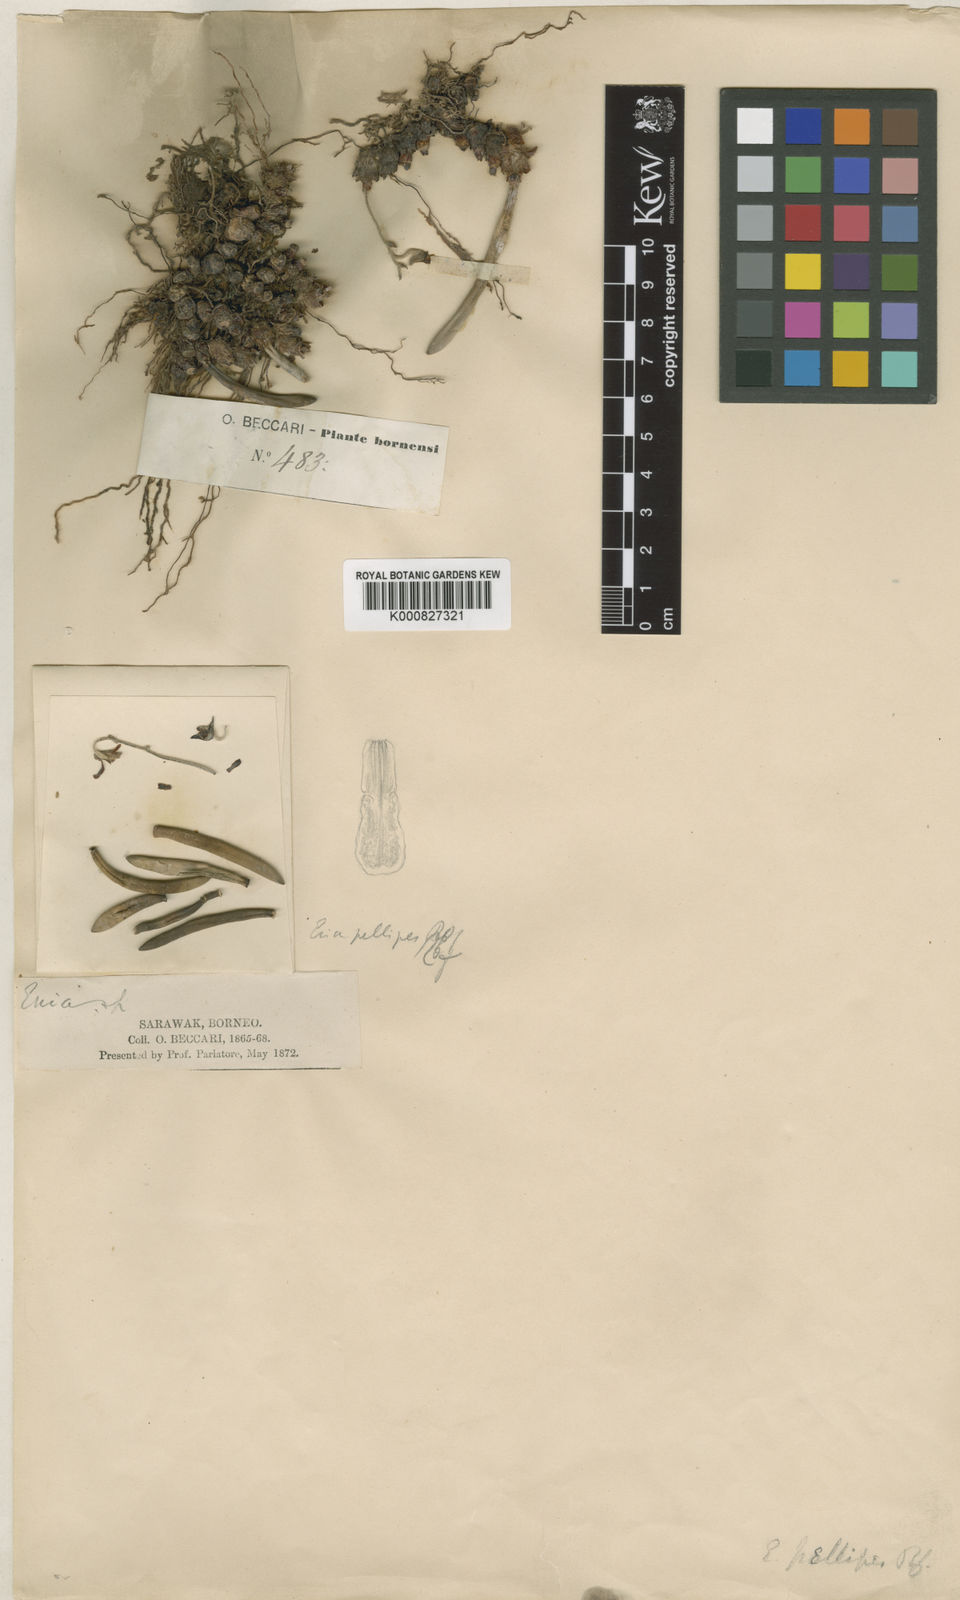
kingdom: Plantae
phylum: Tracheophyta
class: Liliopsida
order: Asparagales
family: Orchidaceae
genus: Strongyleria
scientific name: Strongyleria pellipes
